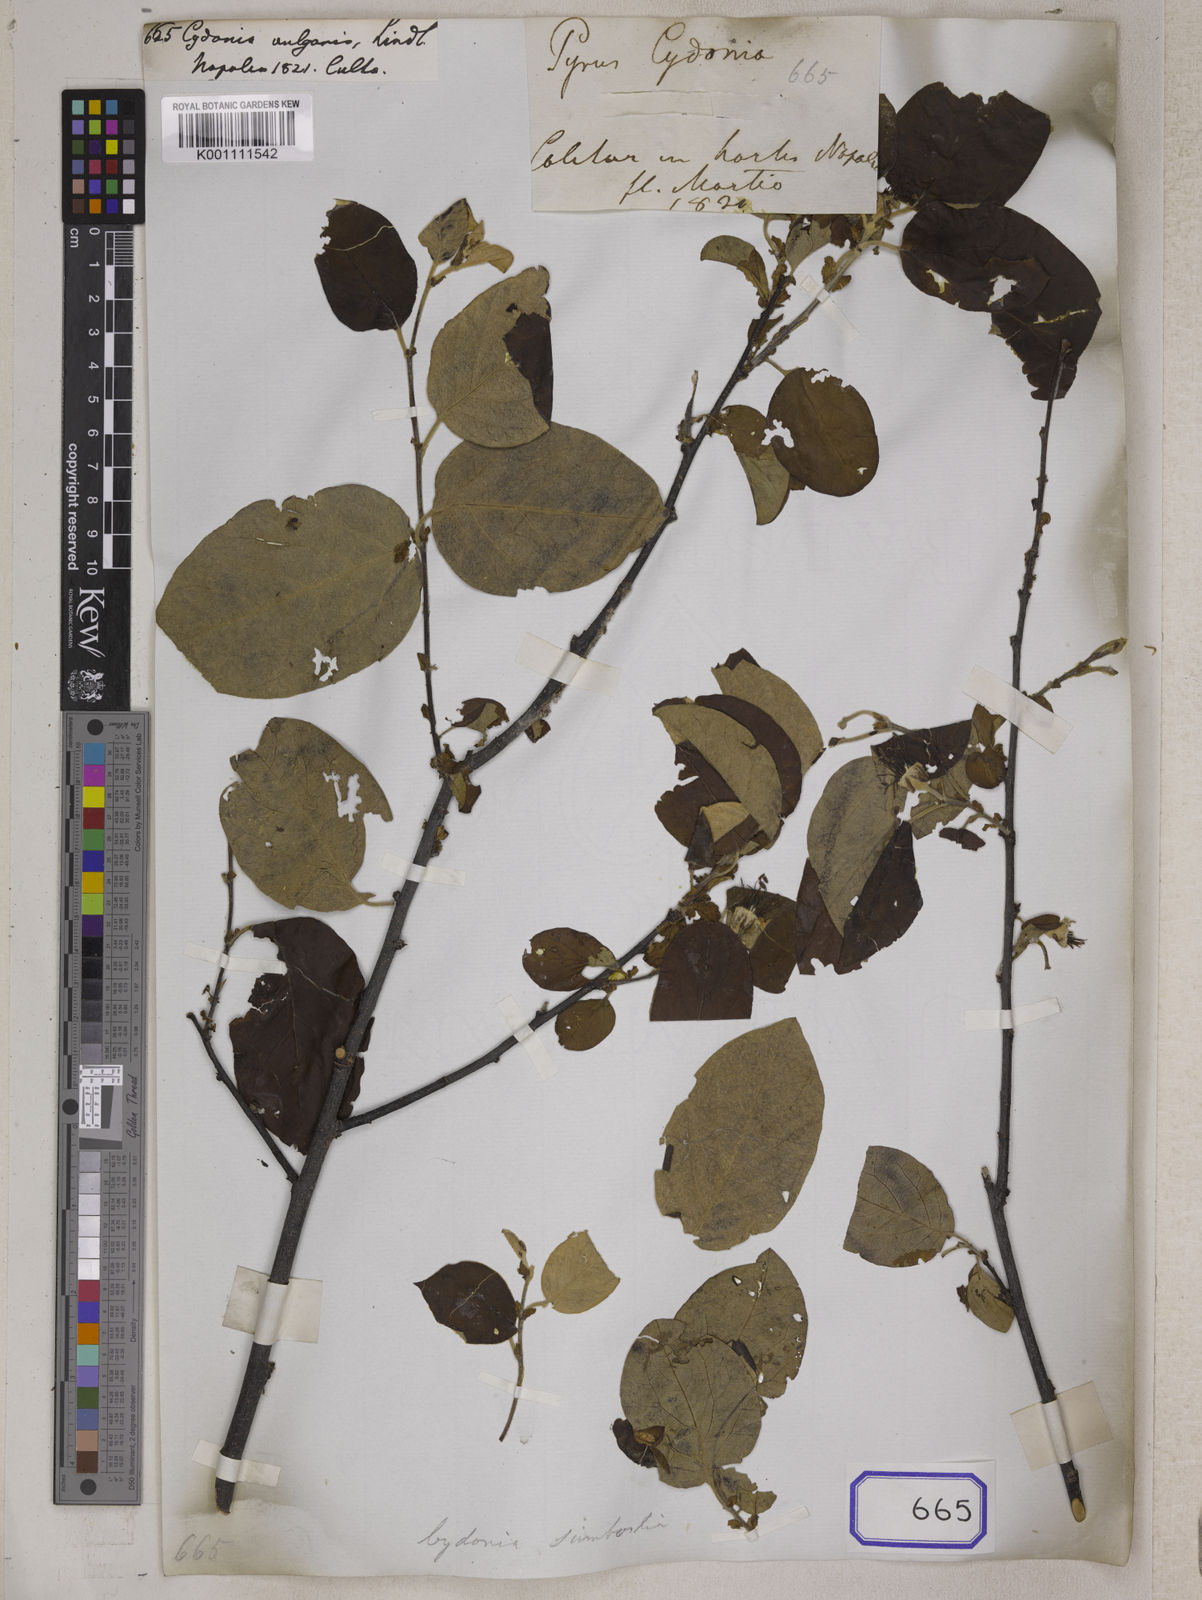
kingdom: Plantae
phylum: Tracheophyta
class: Magnoliopsida
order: Rosales
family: Rosaceae
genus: Cydonia
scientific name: Cydonia
